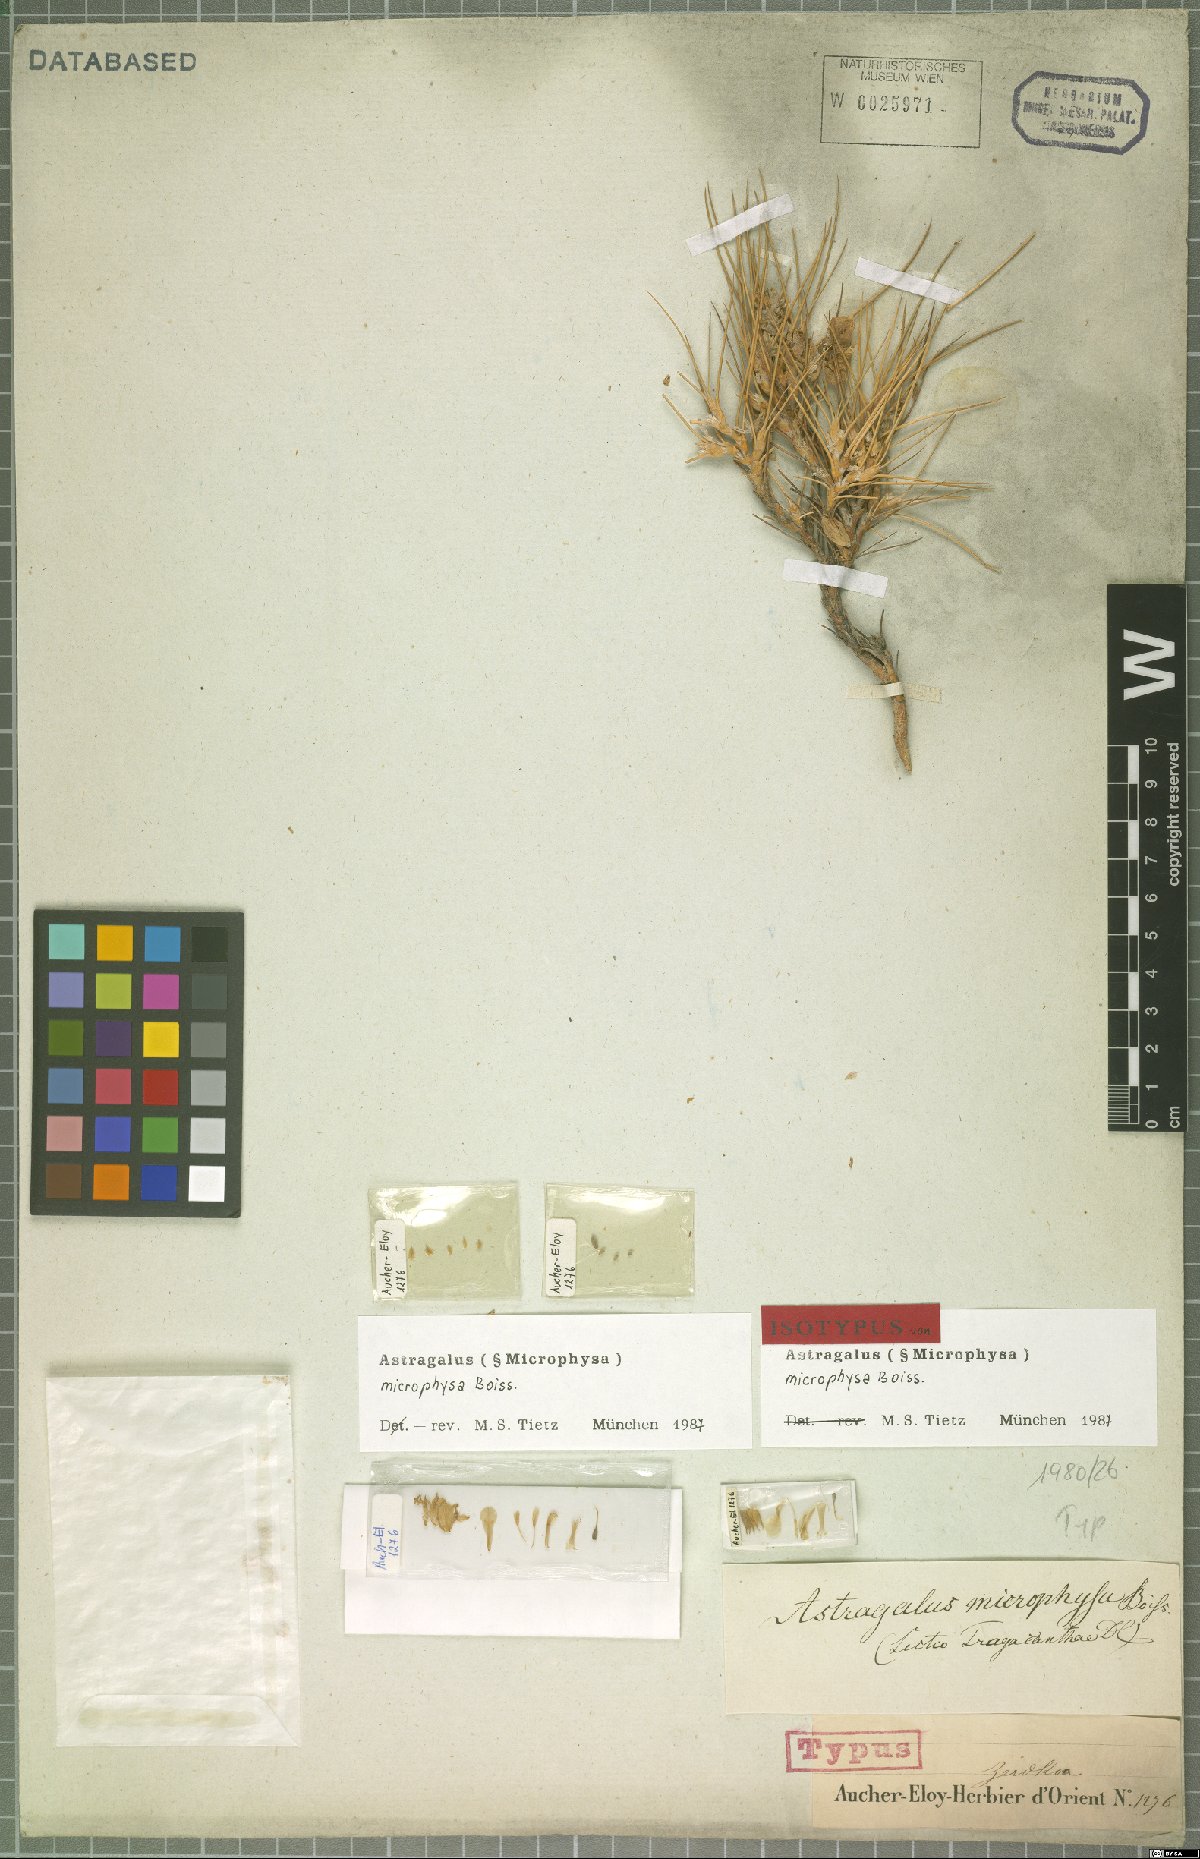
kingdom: Plantae
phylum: Tracheophyta
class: Magnoliopsida
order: Fabales
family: Fabaceae
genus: Astragalus
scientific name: Astragalus microphysa
